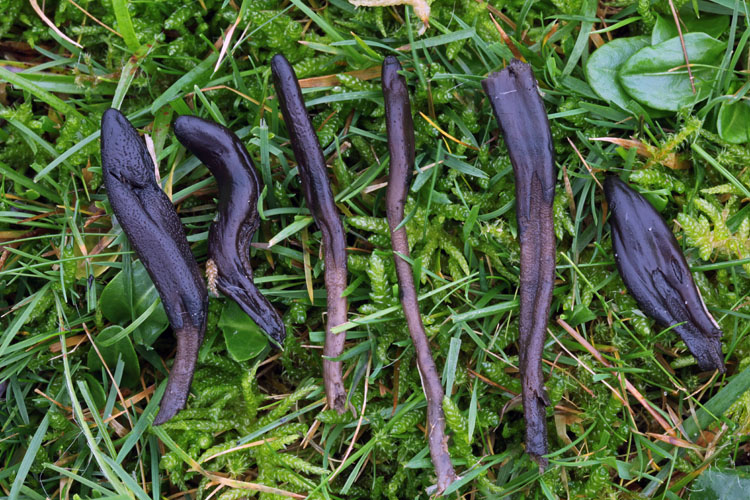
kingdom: Fungi
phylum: Ascomycota
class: Geoglossomycetes
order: Geoglossales
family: Geoglossaceae
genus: Geoglossum
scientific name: Geoglossum fallax
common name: småskællet jordtunge
